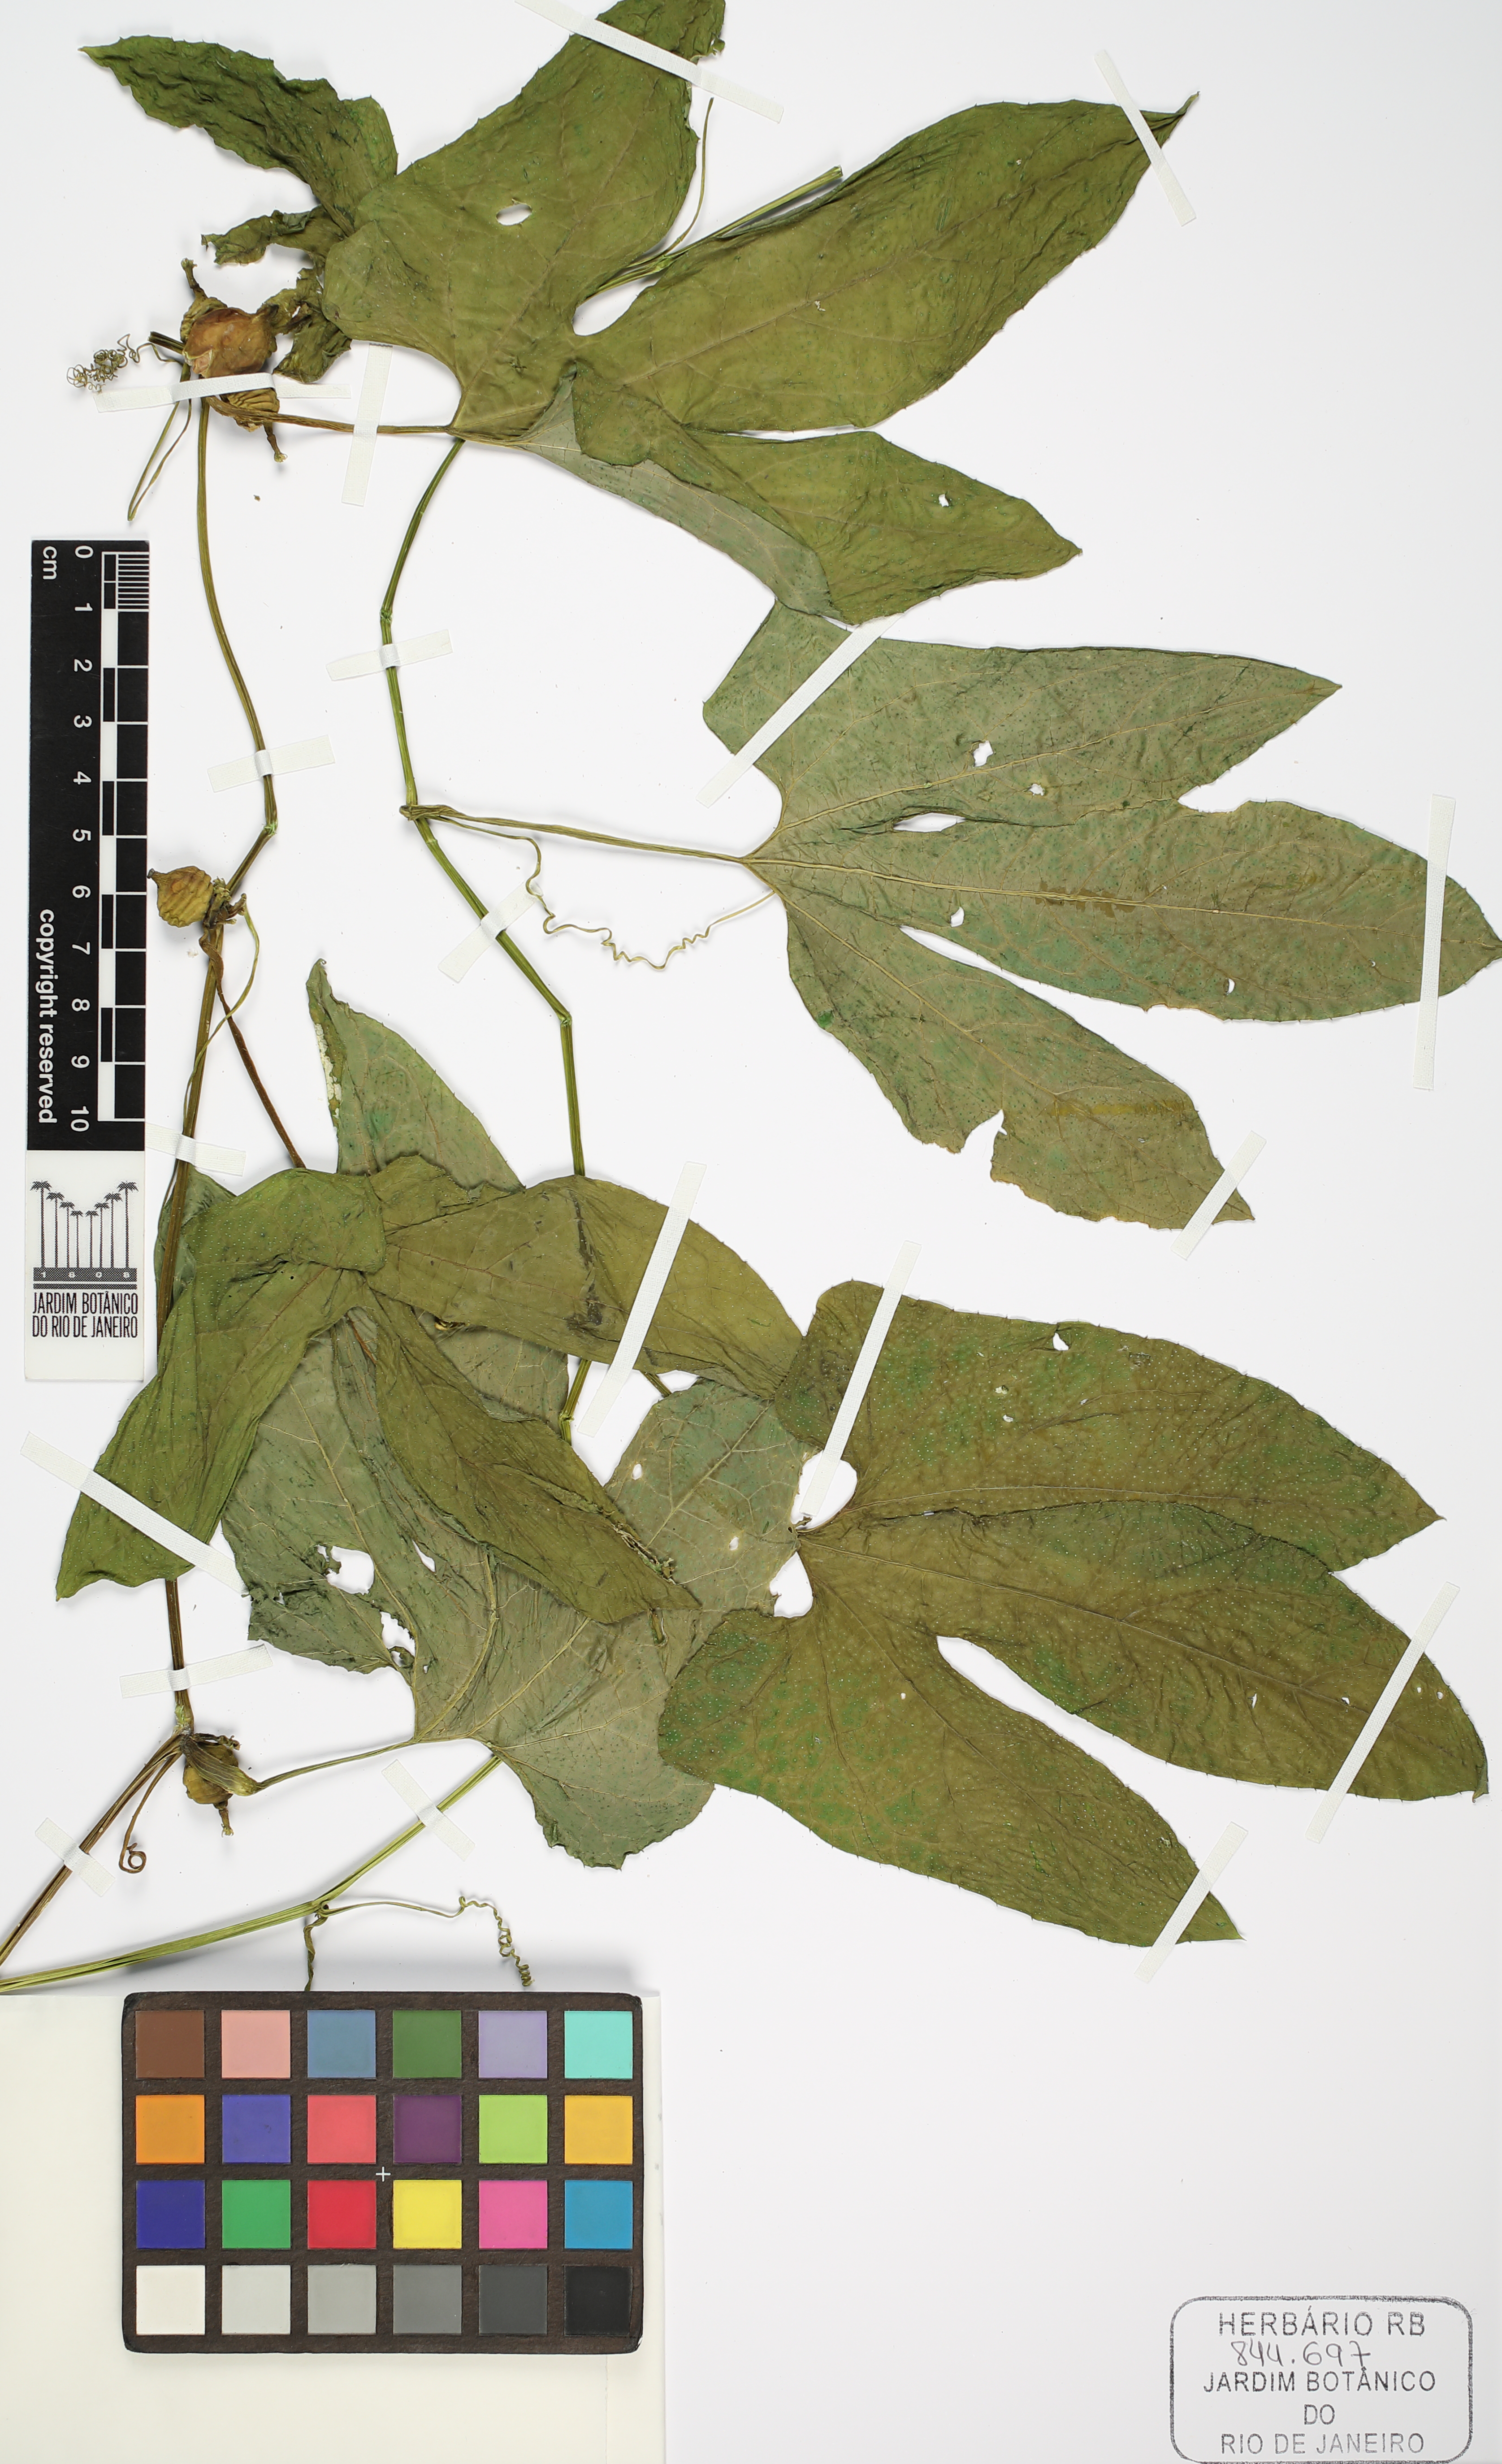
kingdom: Plantae
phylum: Tracheophyta
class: Magnoliopsida
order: Cucurbitales
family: Cucurbitaceae
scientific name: Cucurbitaceae
